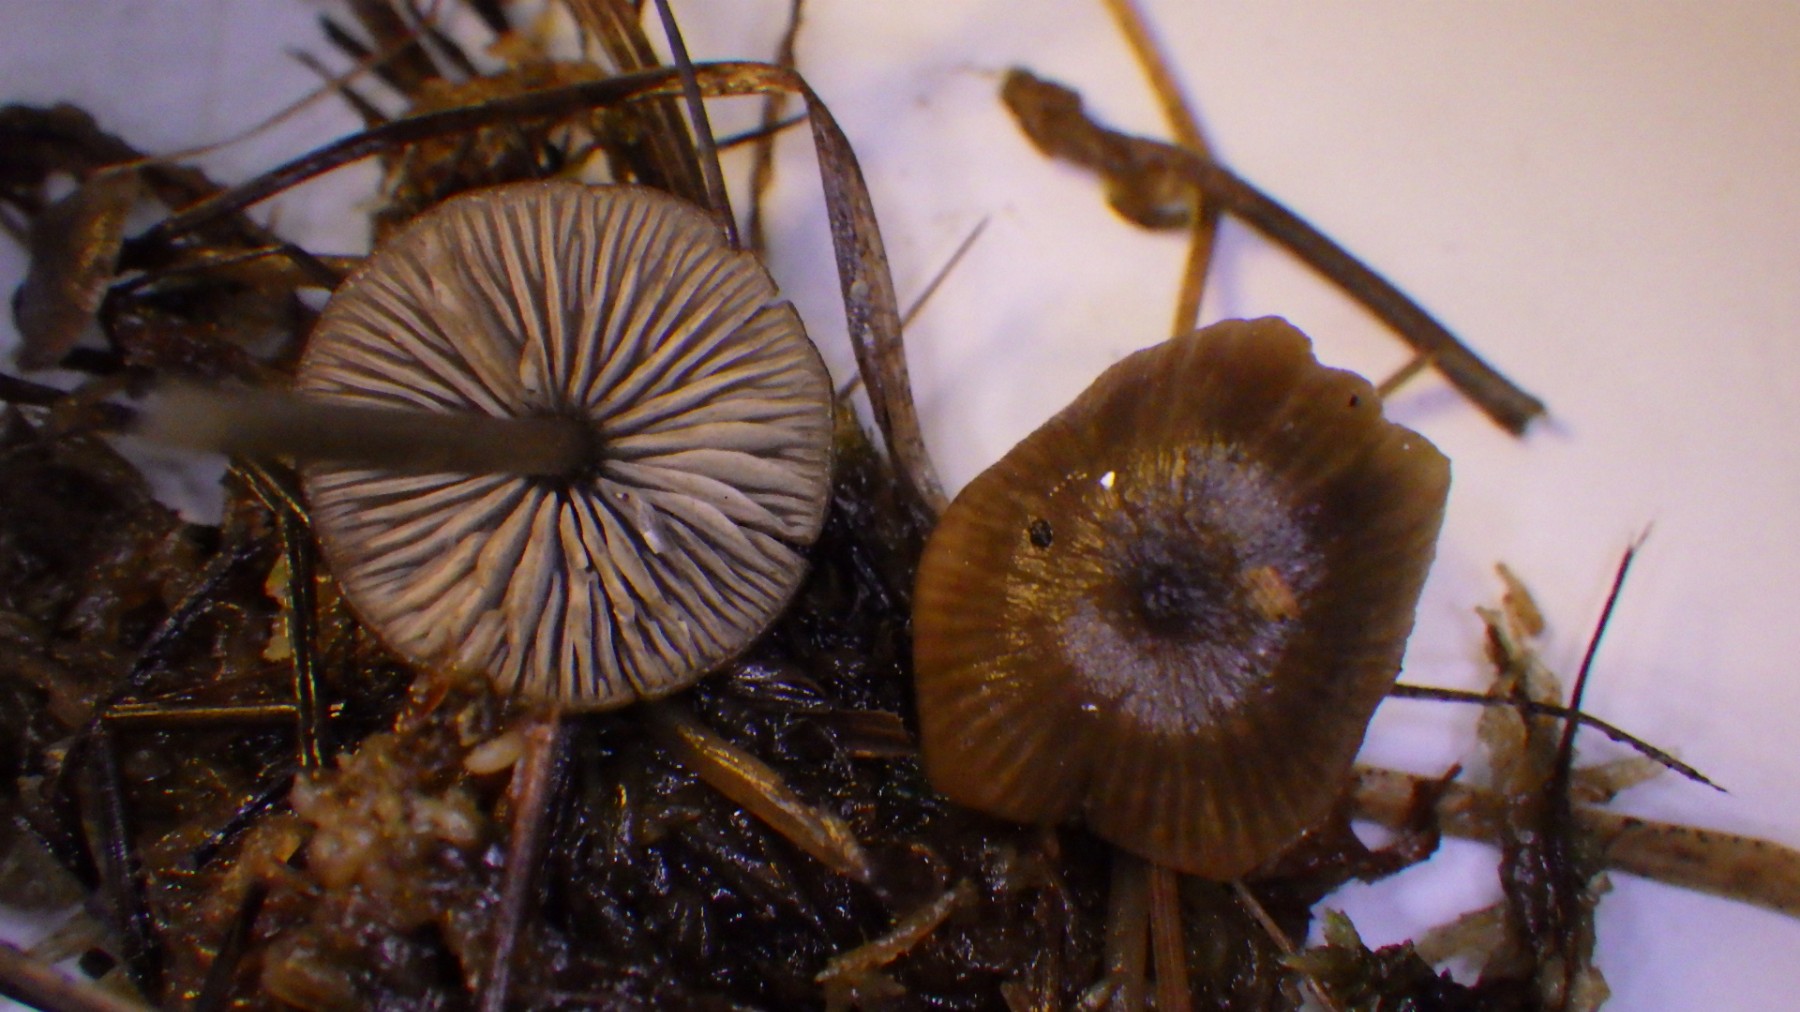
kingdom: Fungi
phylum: Basidiomycota
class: Agaricomycetes
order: Agaricales
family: Lyophyllaceae
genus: Sphagnurus
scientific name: Sphagnurus paluster
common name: tørvemos-gråblad
